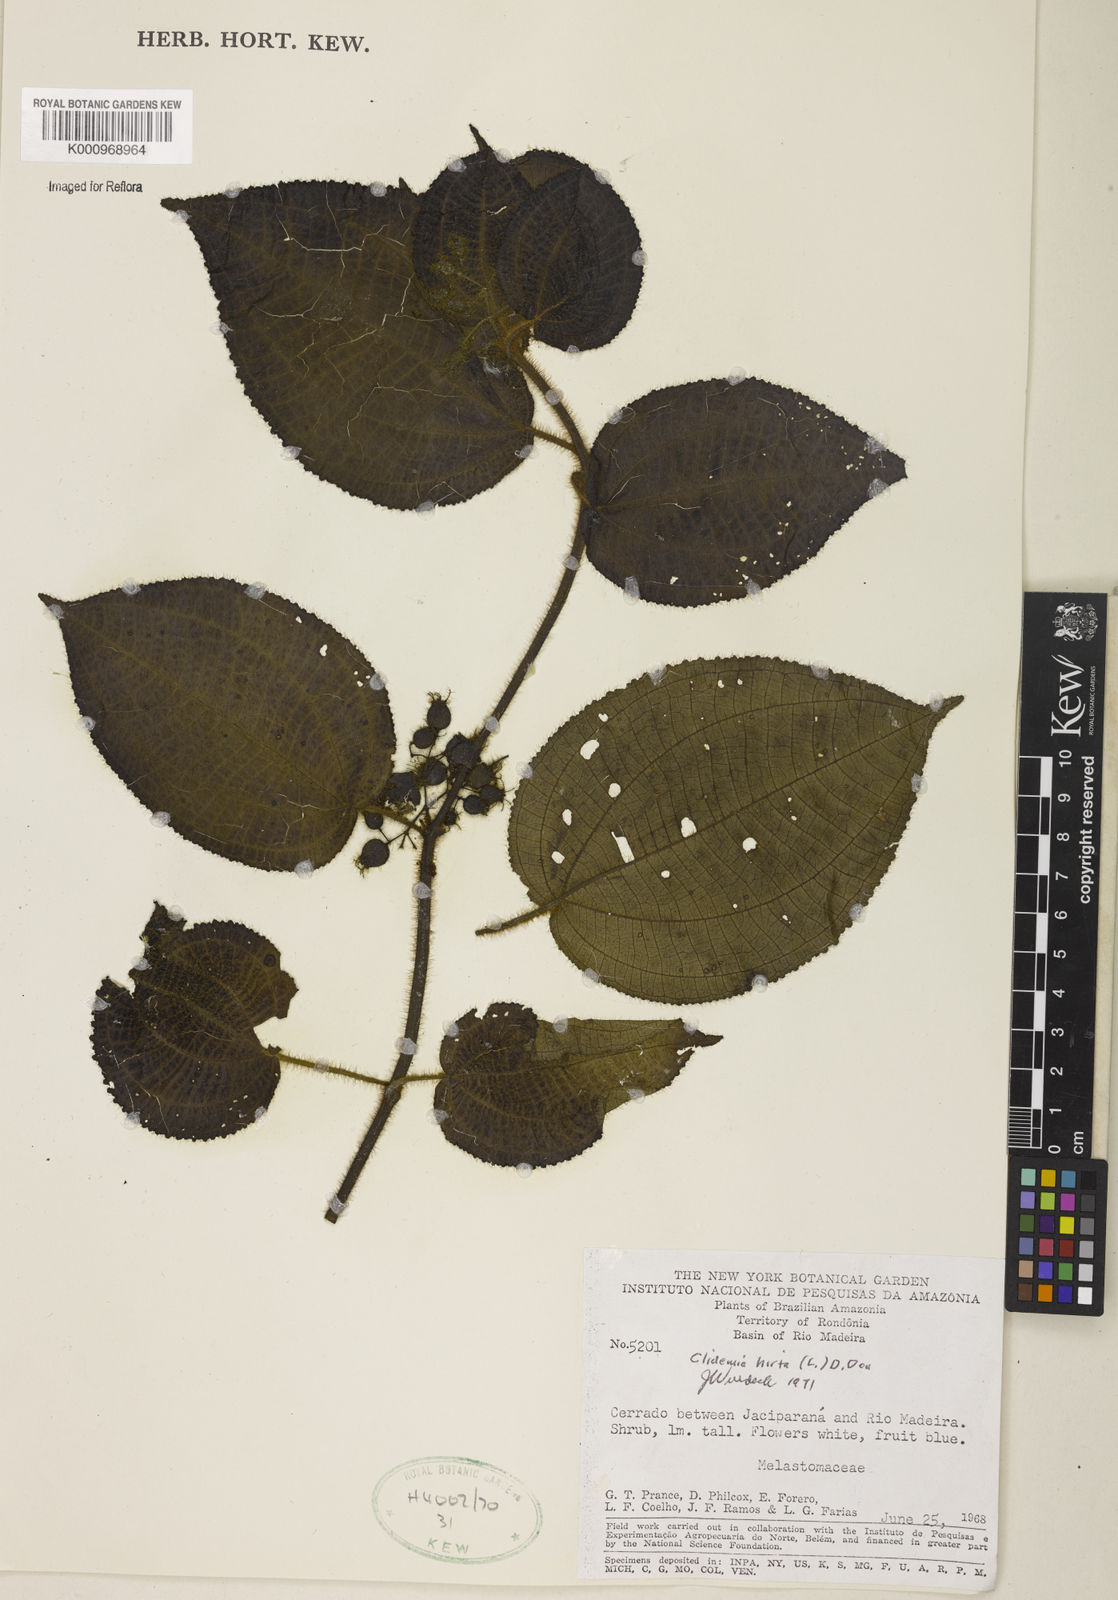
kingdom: Plantae
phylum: Tracheophyta
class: Magnoliopsida
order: Myrtales
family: Melastomataceae
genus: Miconia
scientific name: Miconia crenata
